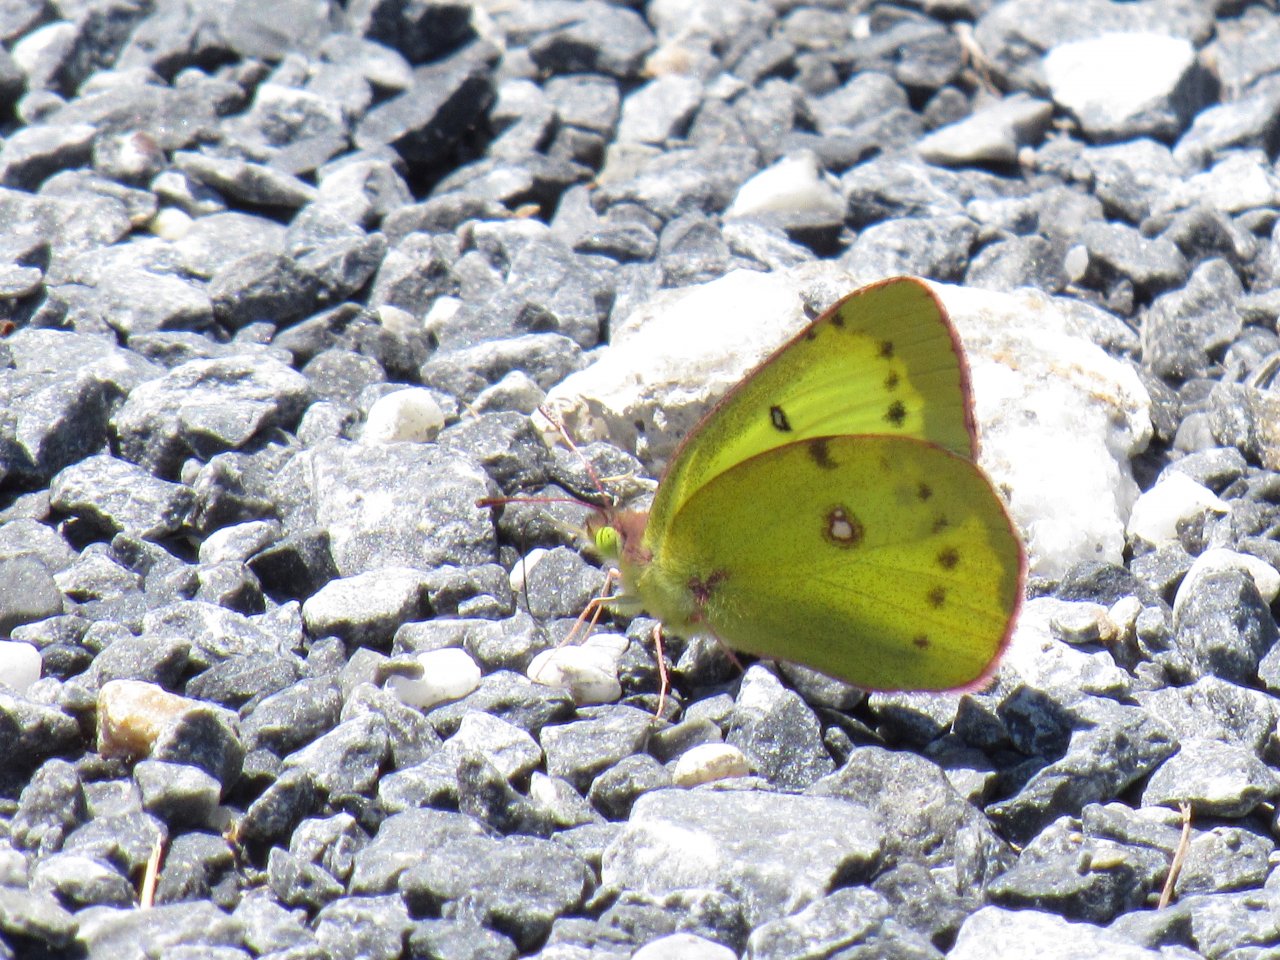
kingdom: Animalia
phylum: Arthropoda
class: Insecta
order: Lepidoptera
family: Pieridae
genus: Colias
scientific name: Colias philodice
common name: Clouded Sulphur
